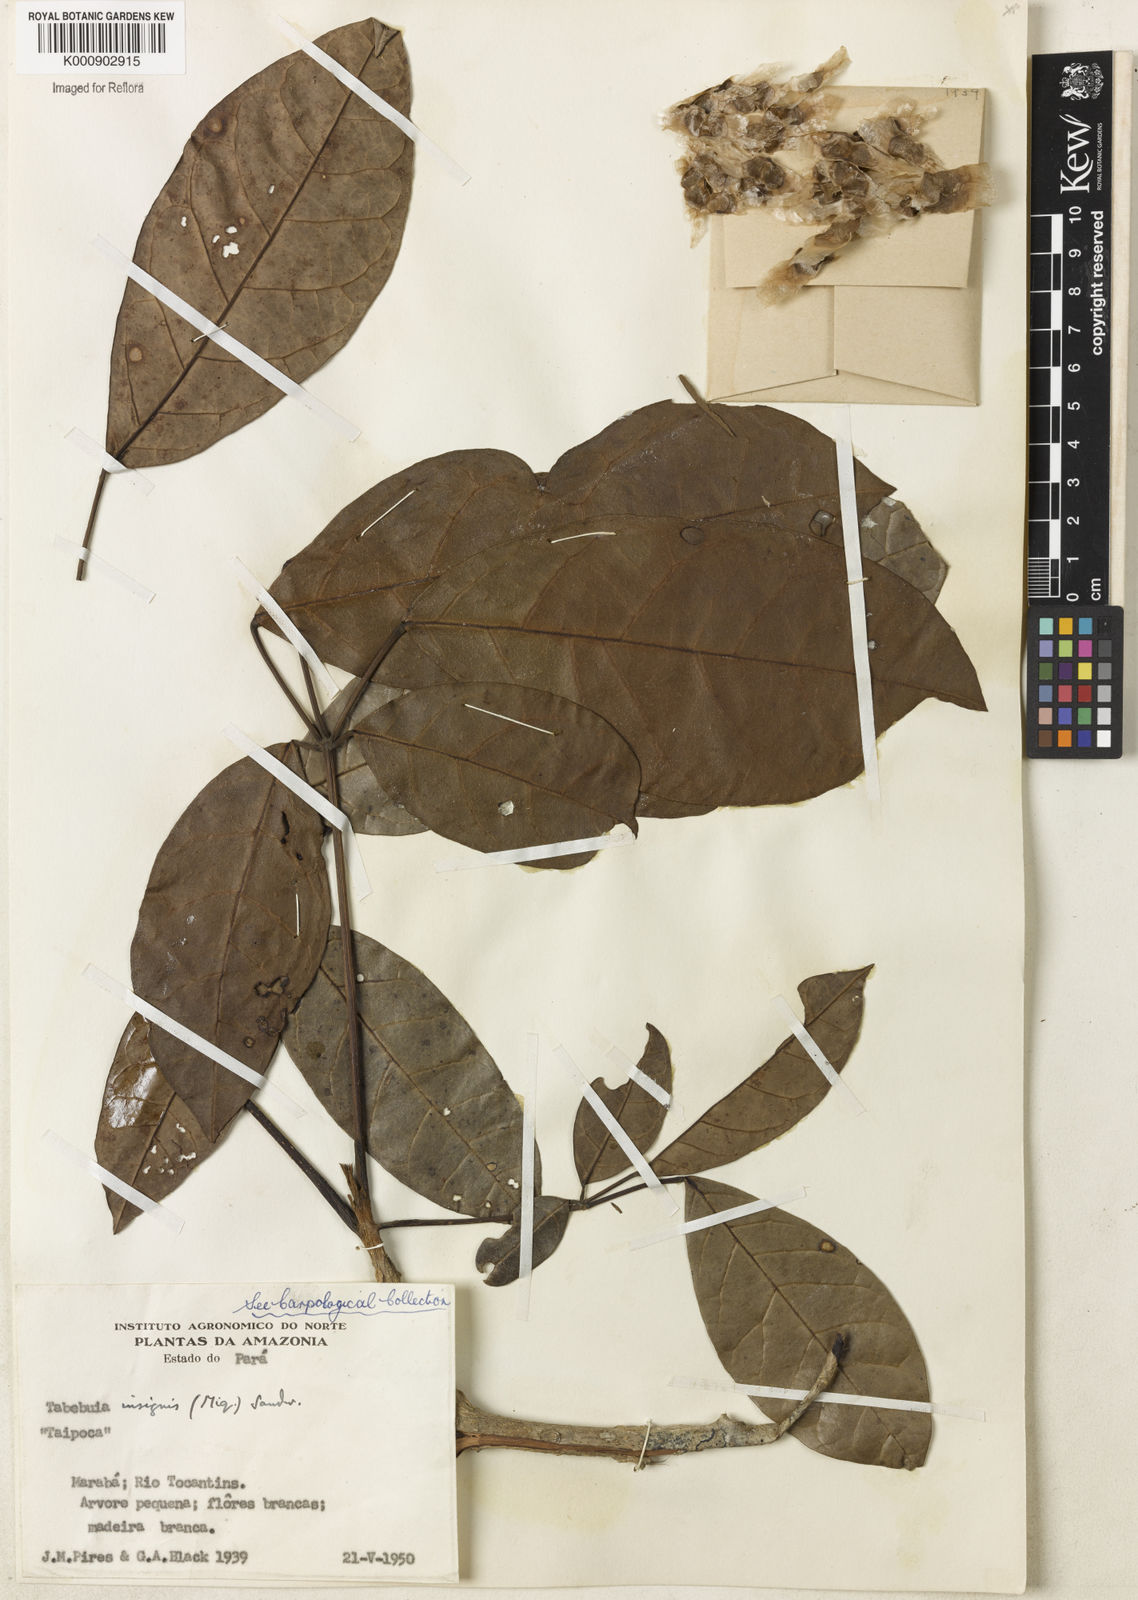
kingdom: Plantae
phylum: Tracheophyta
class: Magnoliopsida
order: Lamiales
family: Bignoniaceae
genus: Tabebuia
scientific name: Tabebuia insignis
